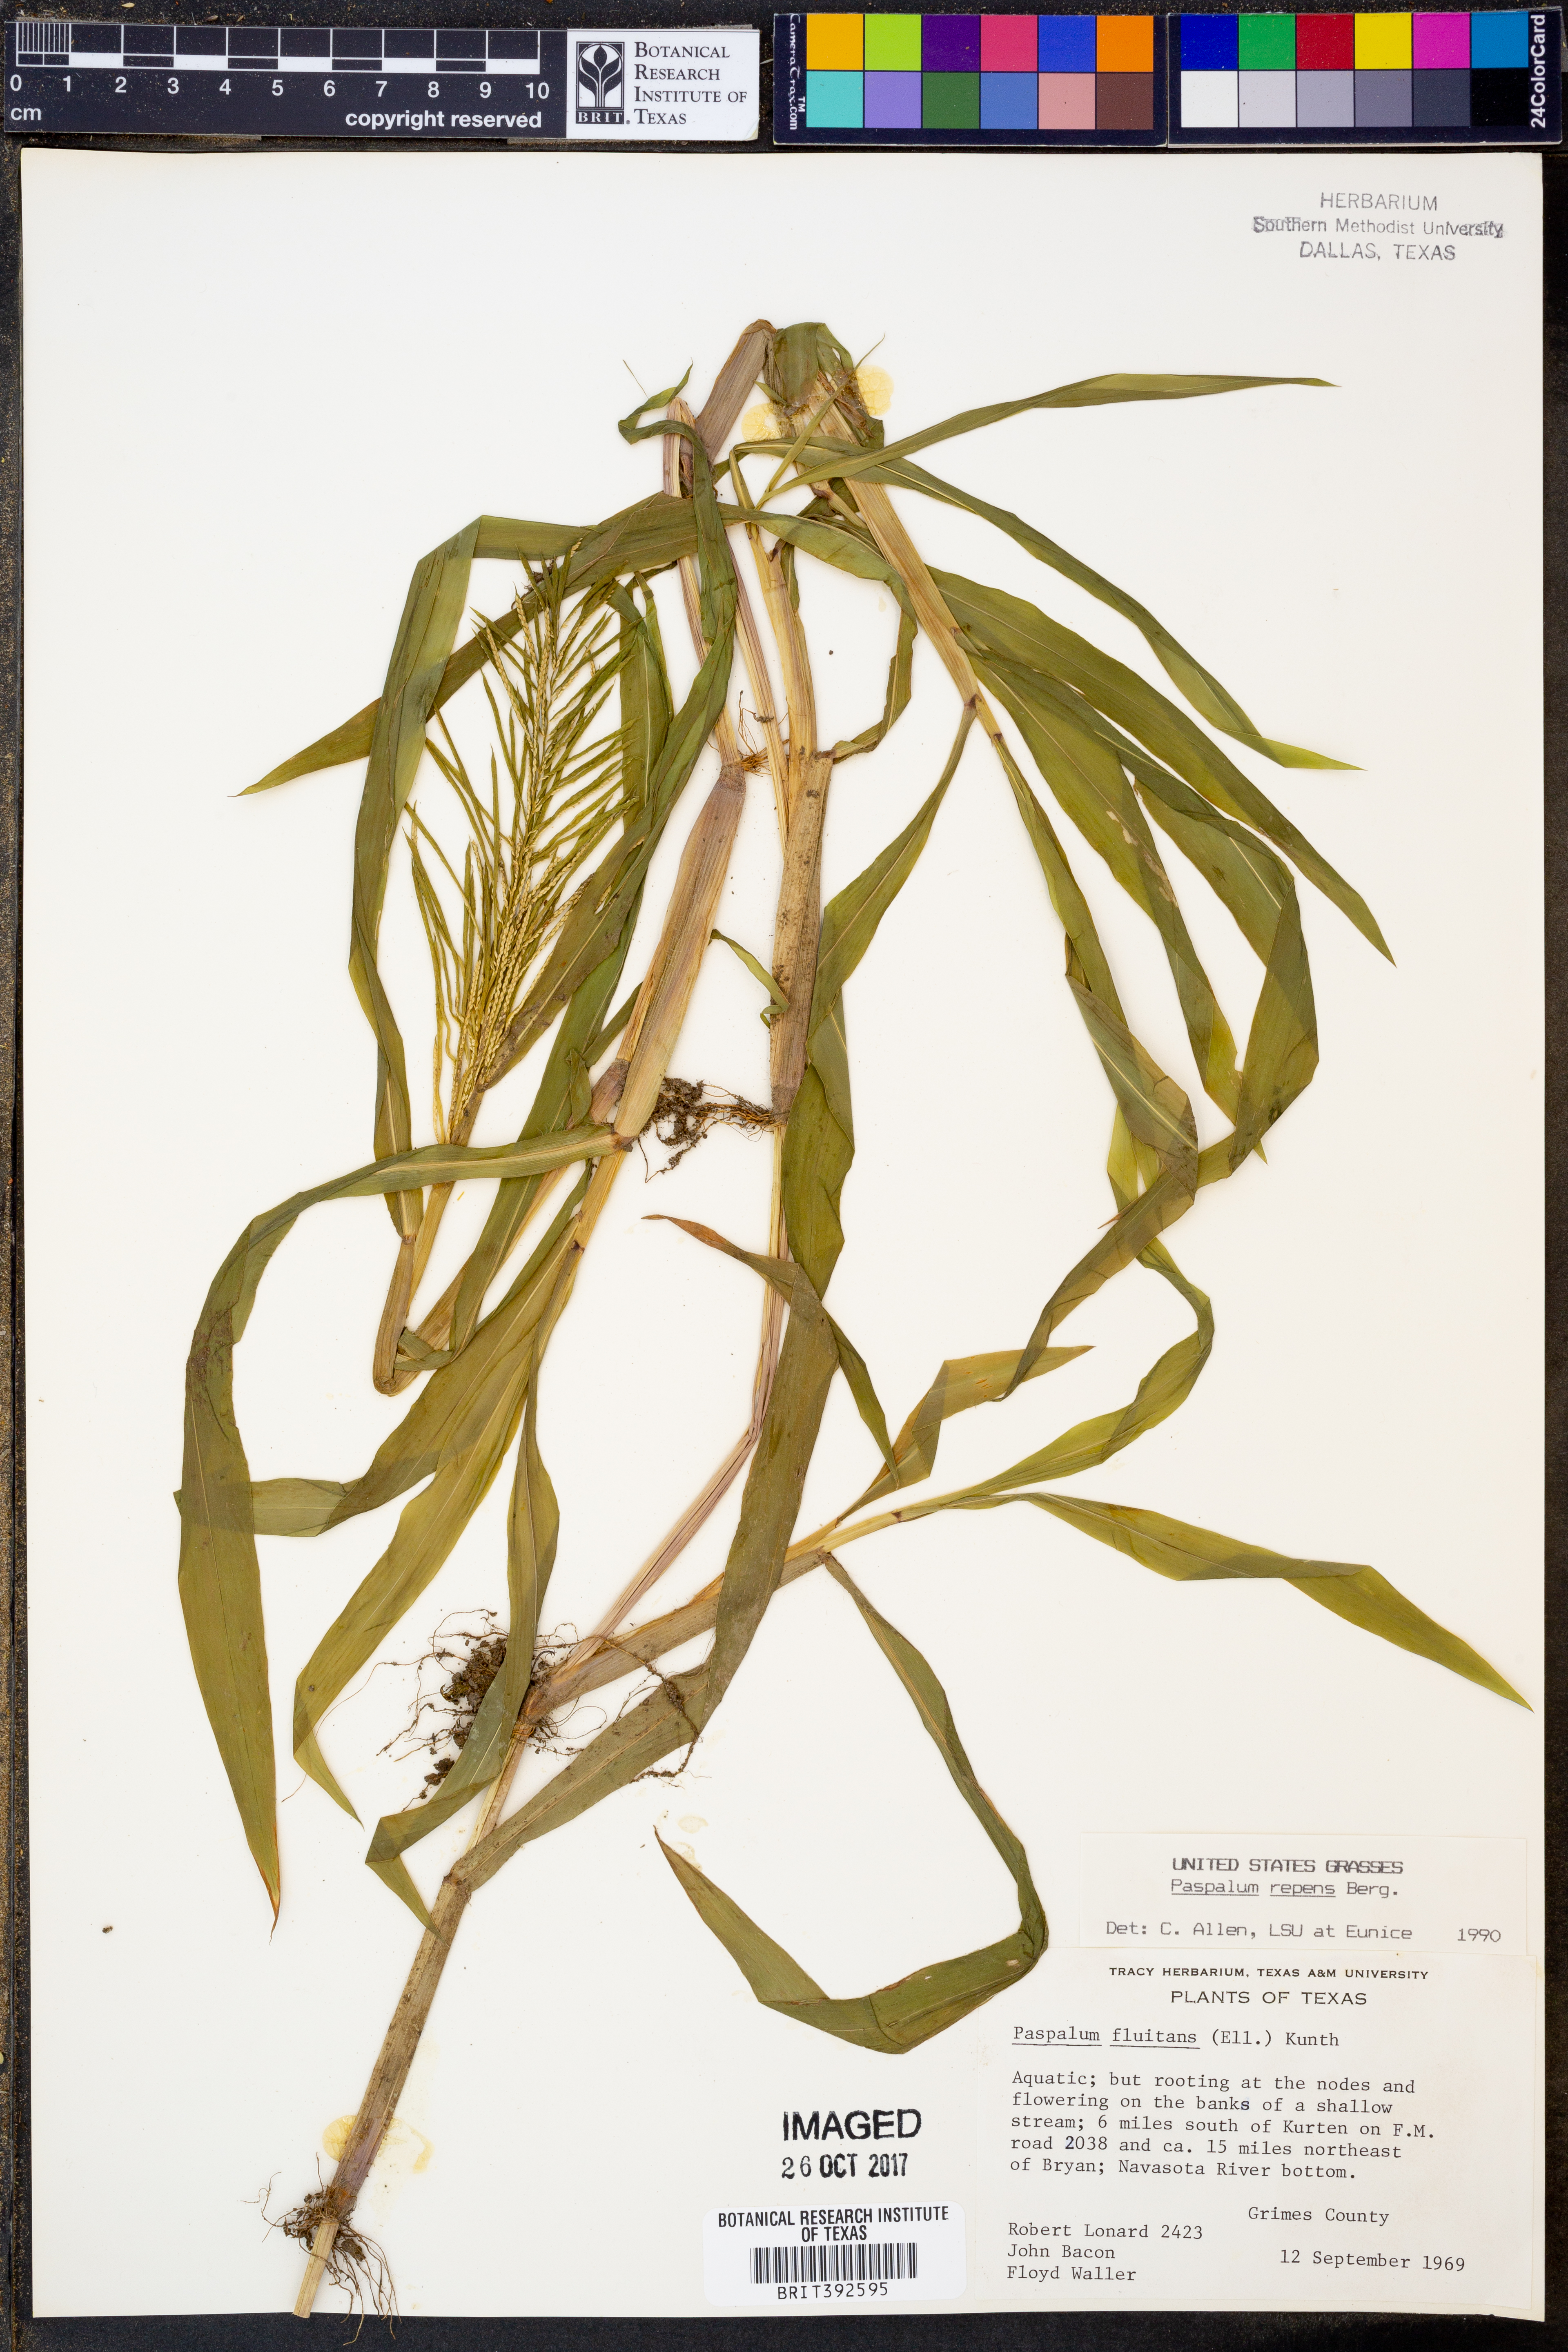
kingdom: Plantae
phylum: Tracheophyta
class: Liliopsida
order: Poales
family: Poaceae
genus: Paspalum
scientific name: Paspalum repens
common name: Water paspalum
